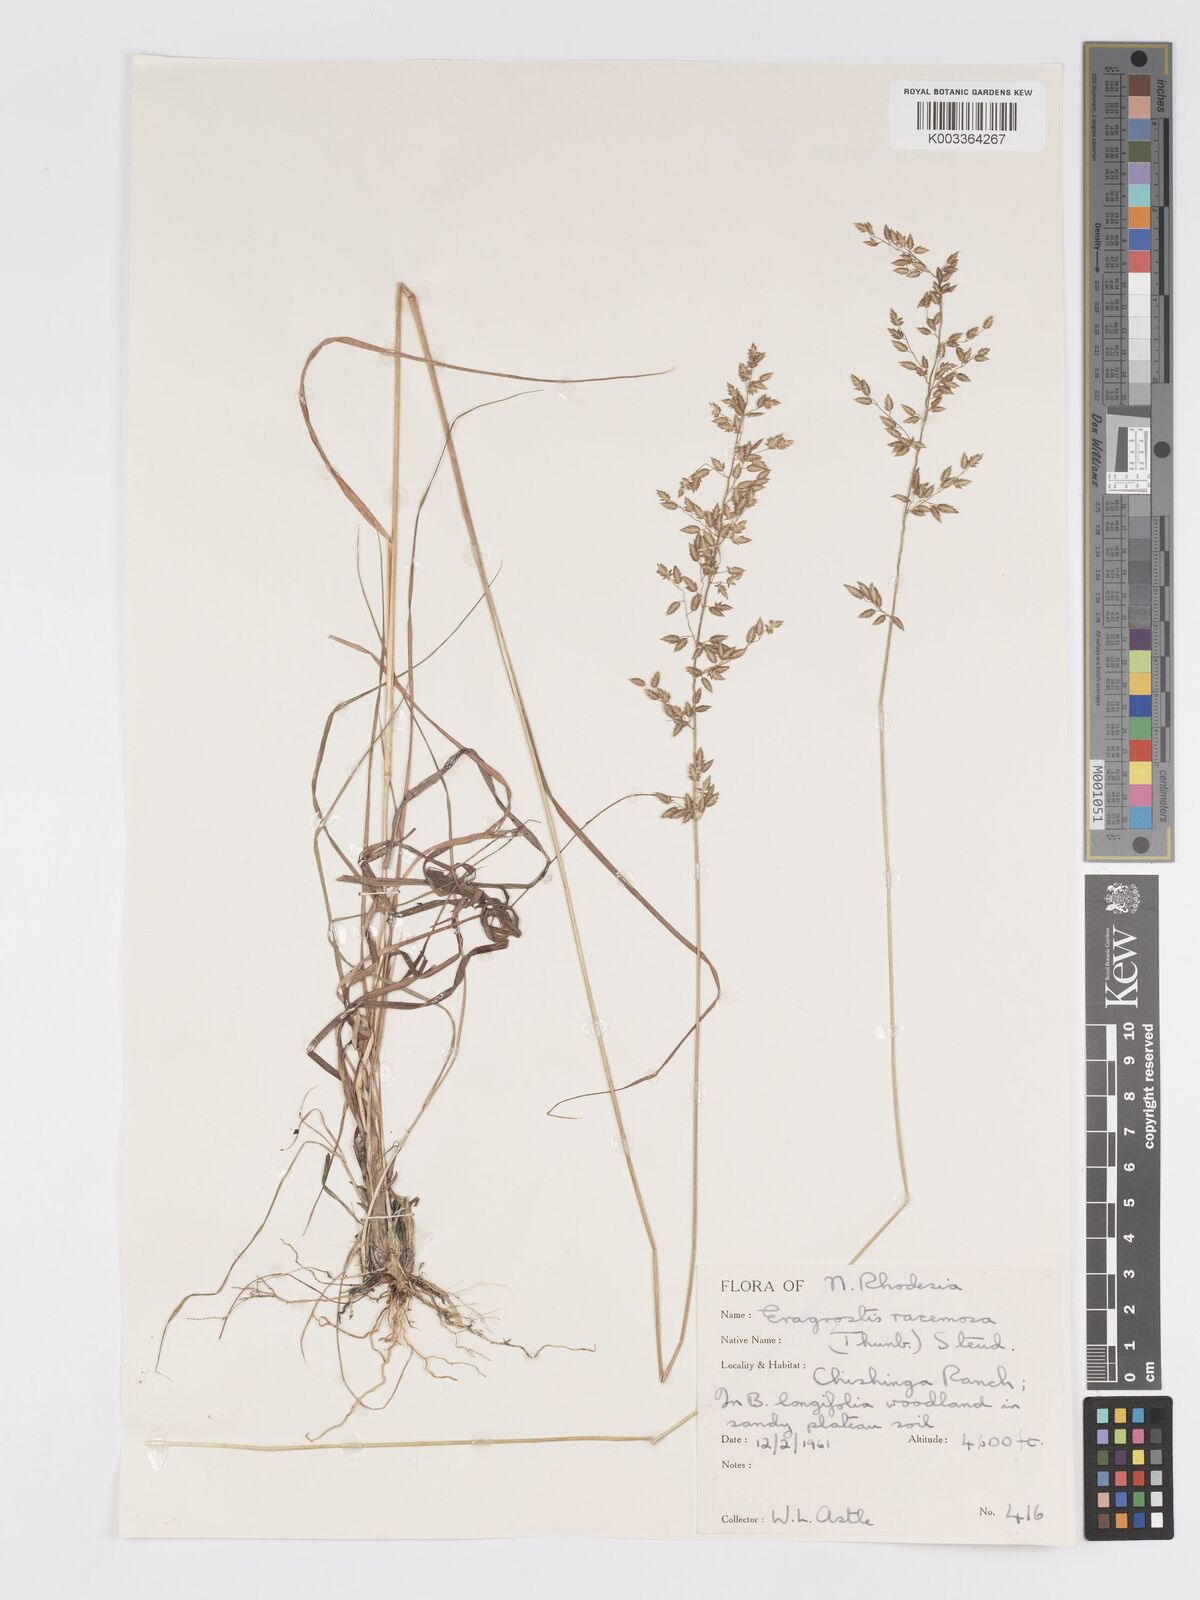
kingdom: Plantae
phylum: Tracheophyta
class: Liliopsida
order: Poales
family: Poaceae
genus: Eragrostis
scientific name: Eragrostis racemosa
